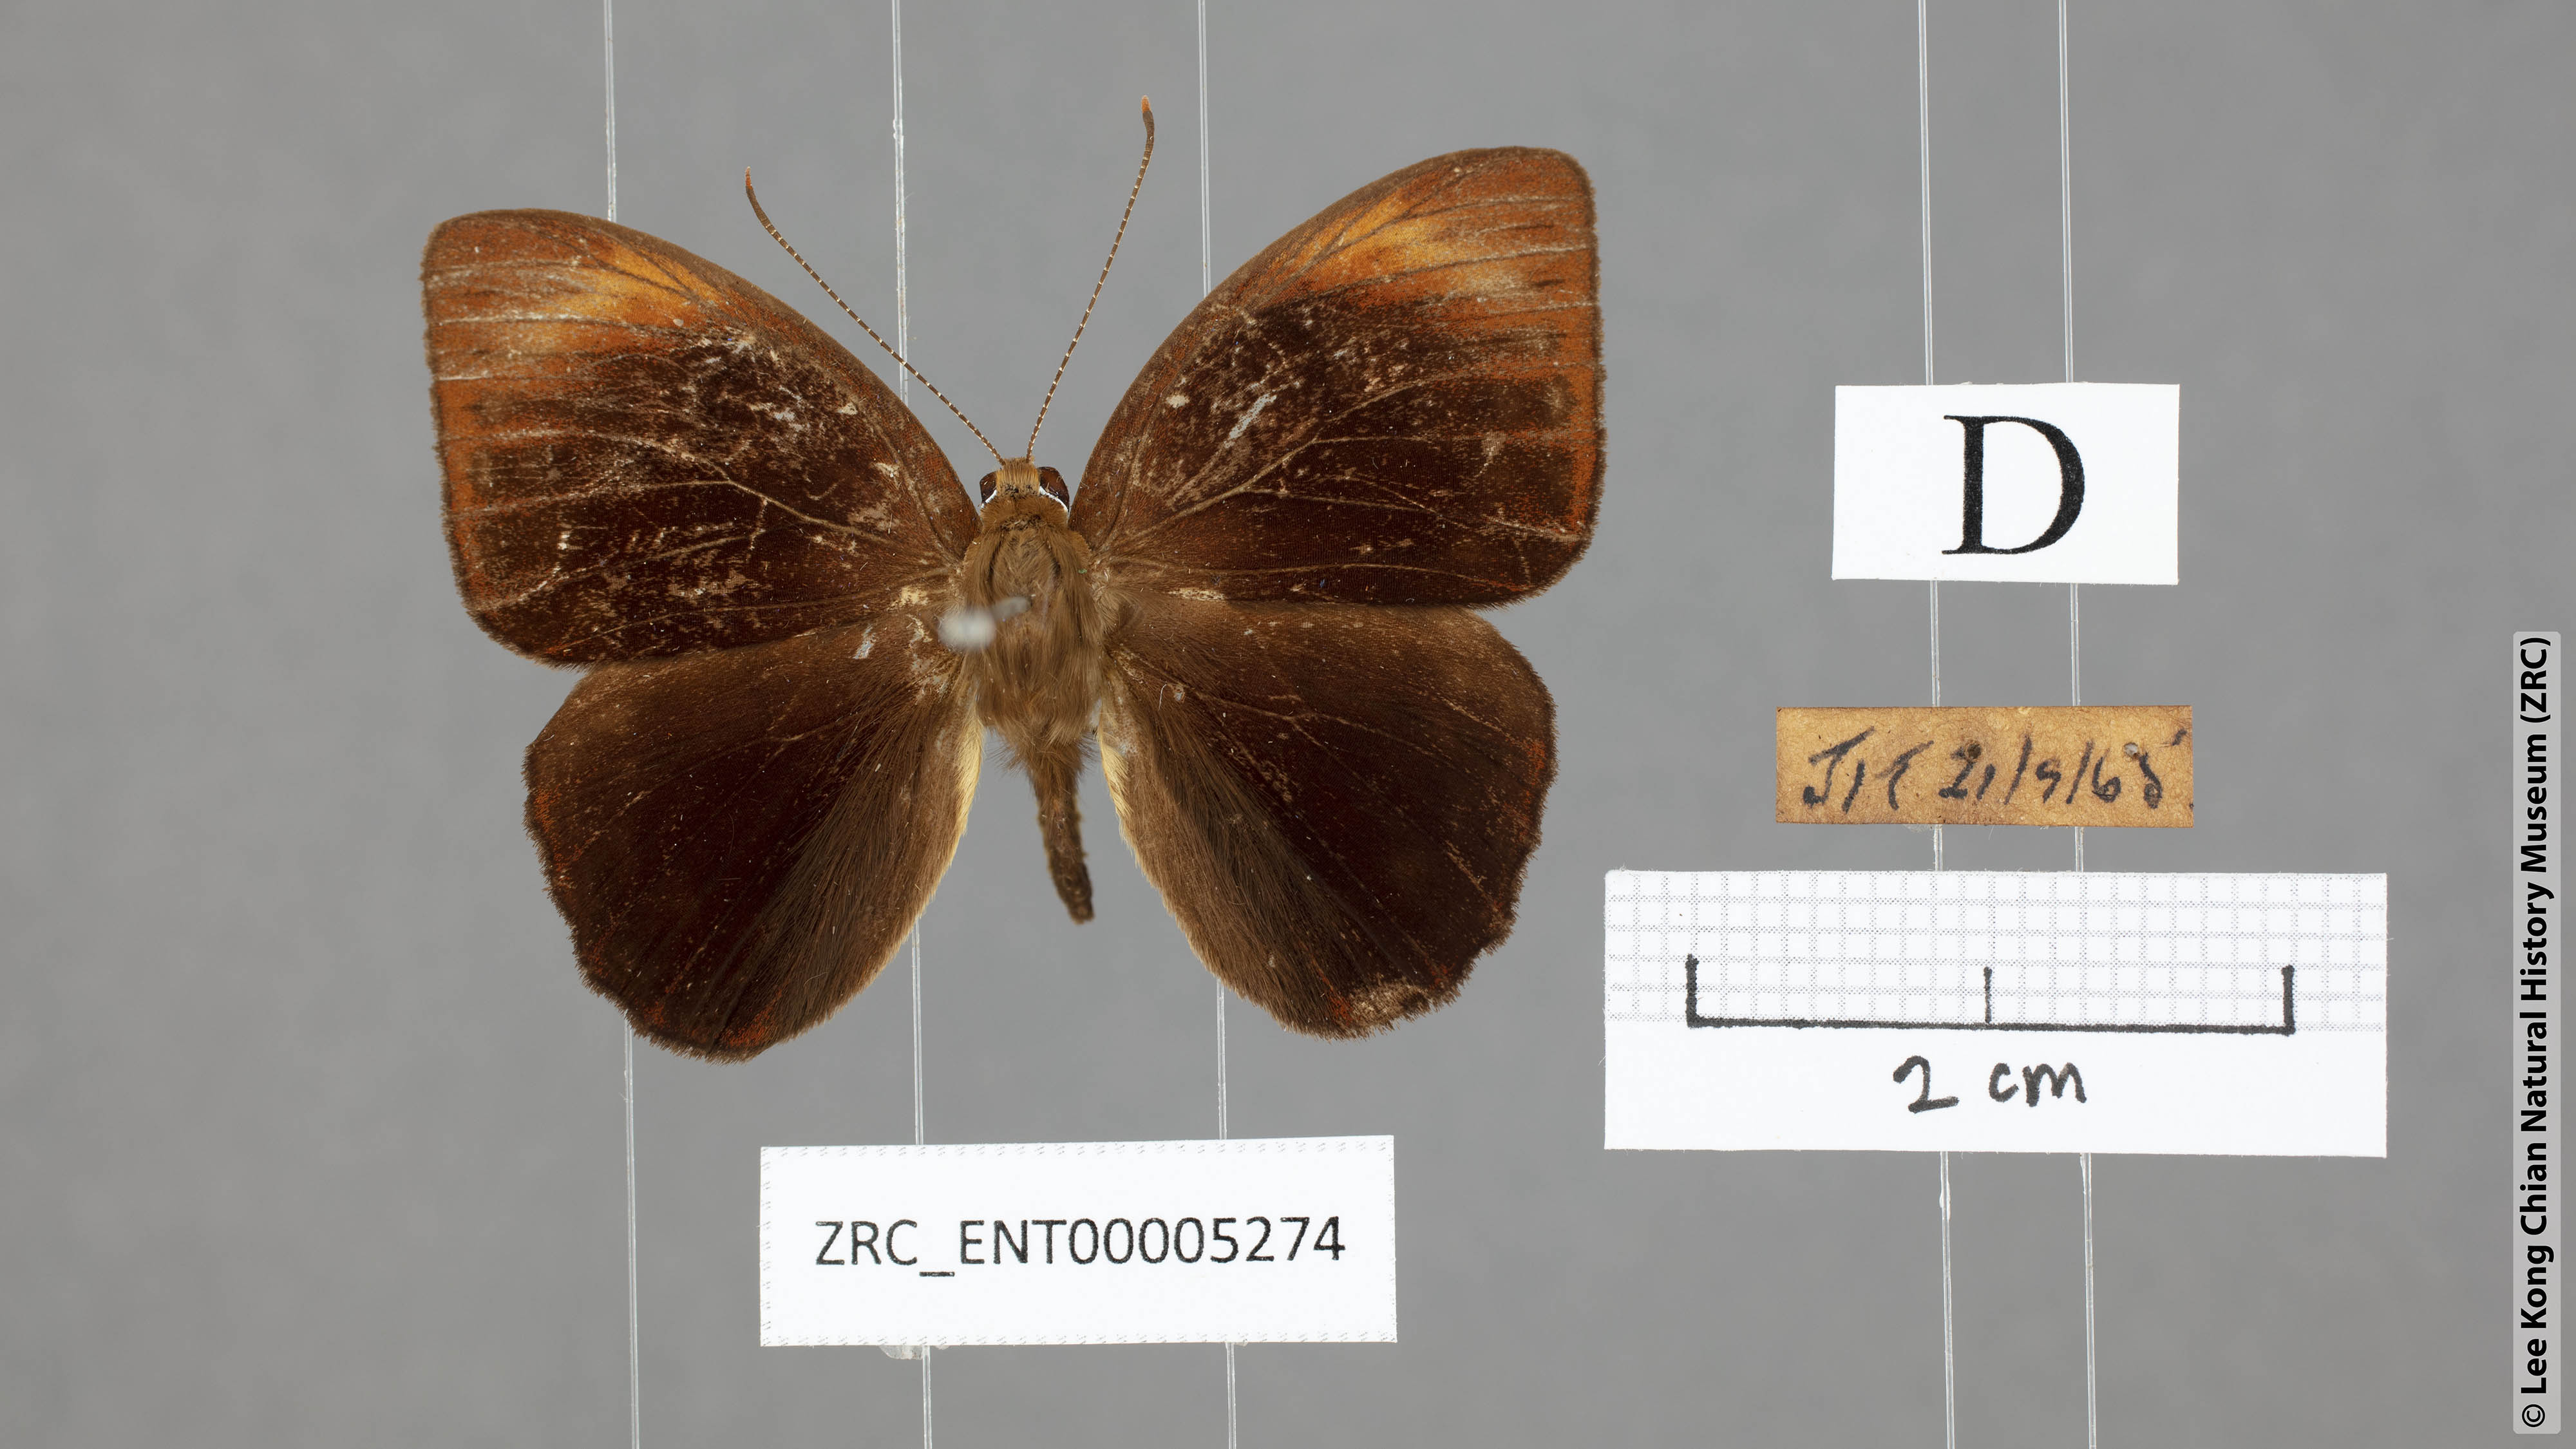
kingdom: Animalia
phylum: Arthropoda
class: Insecta
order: Lepidoptera
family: Erebidae
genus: Dysschema
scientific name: Dysschema
